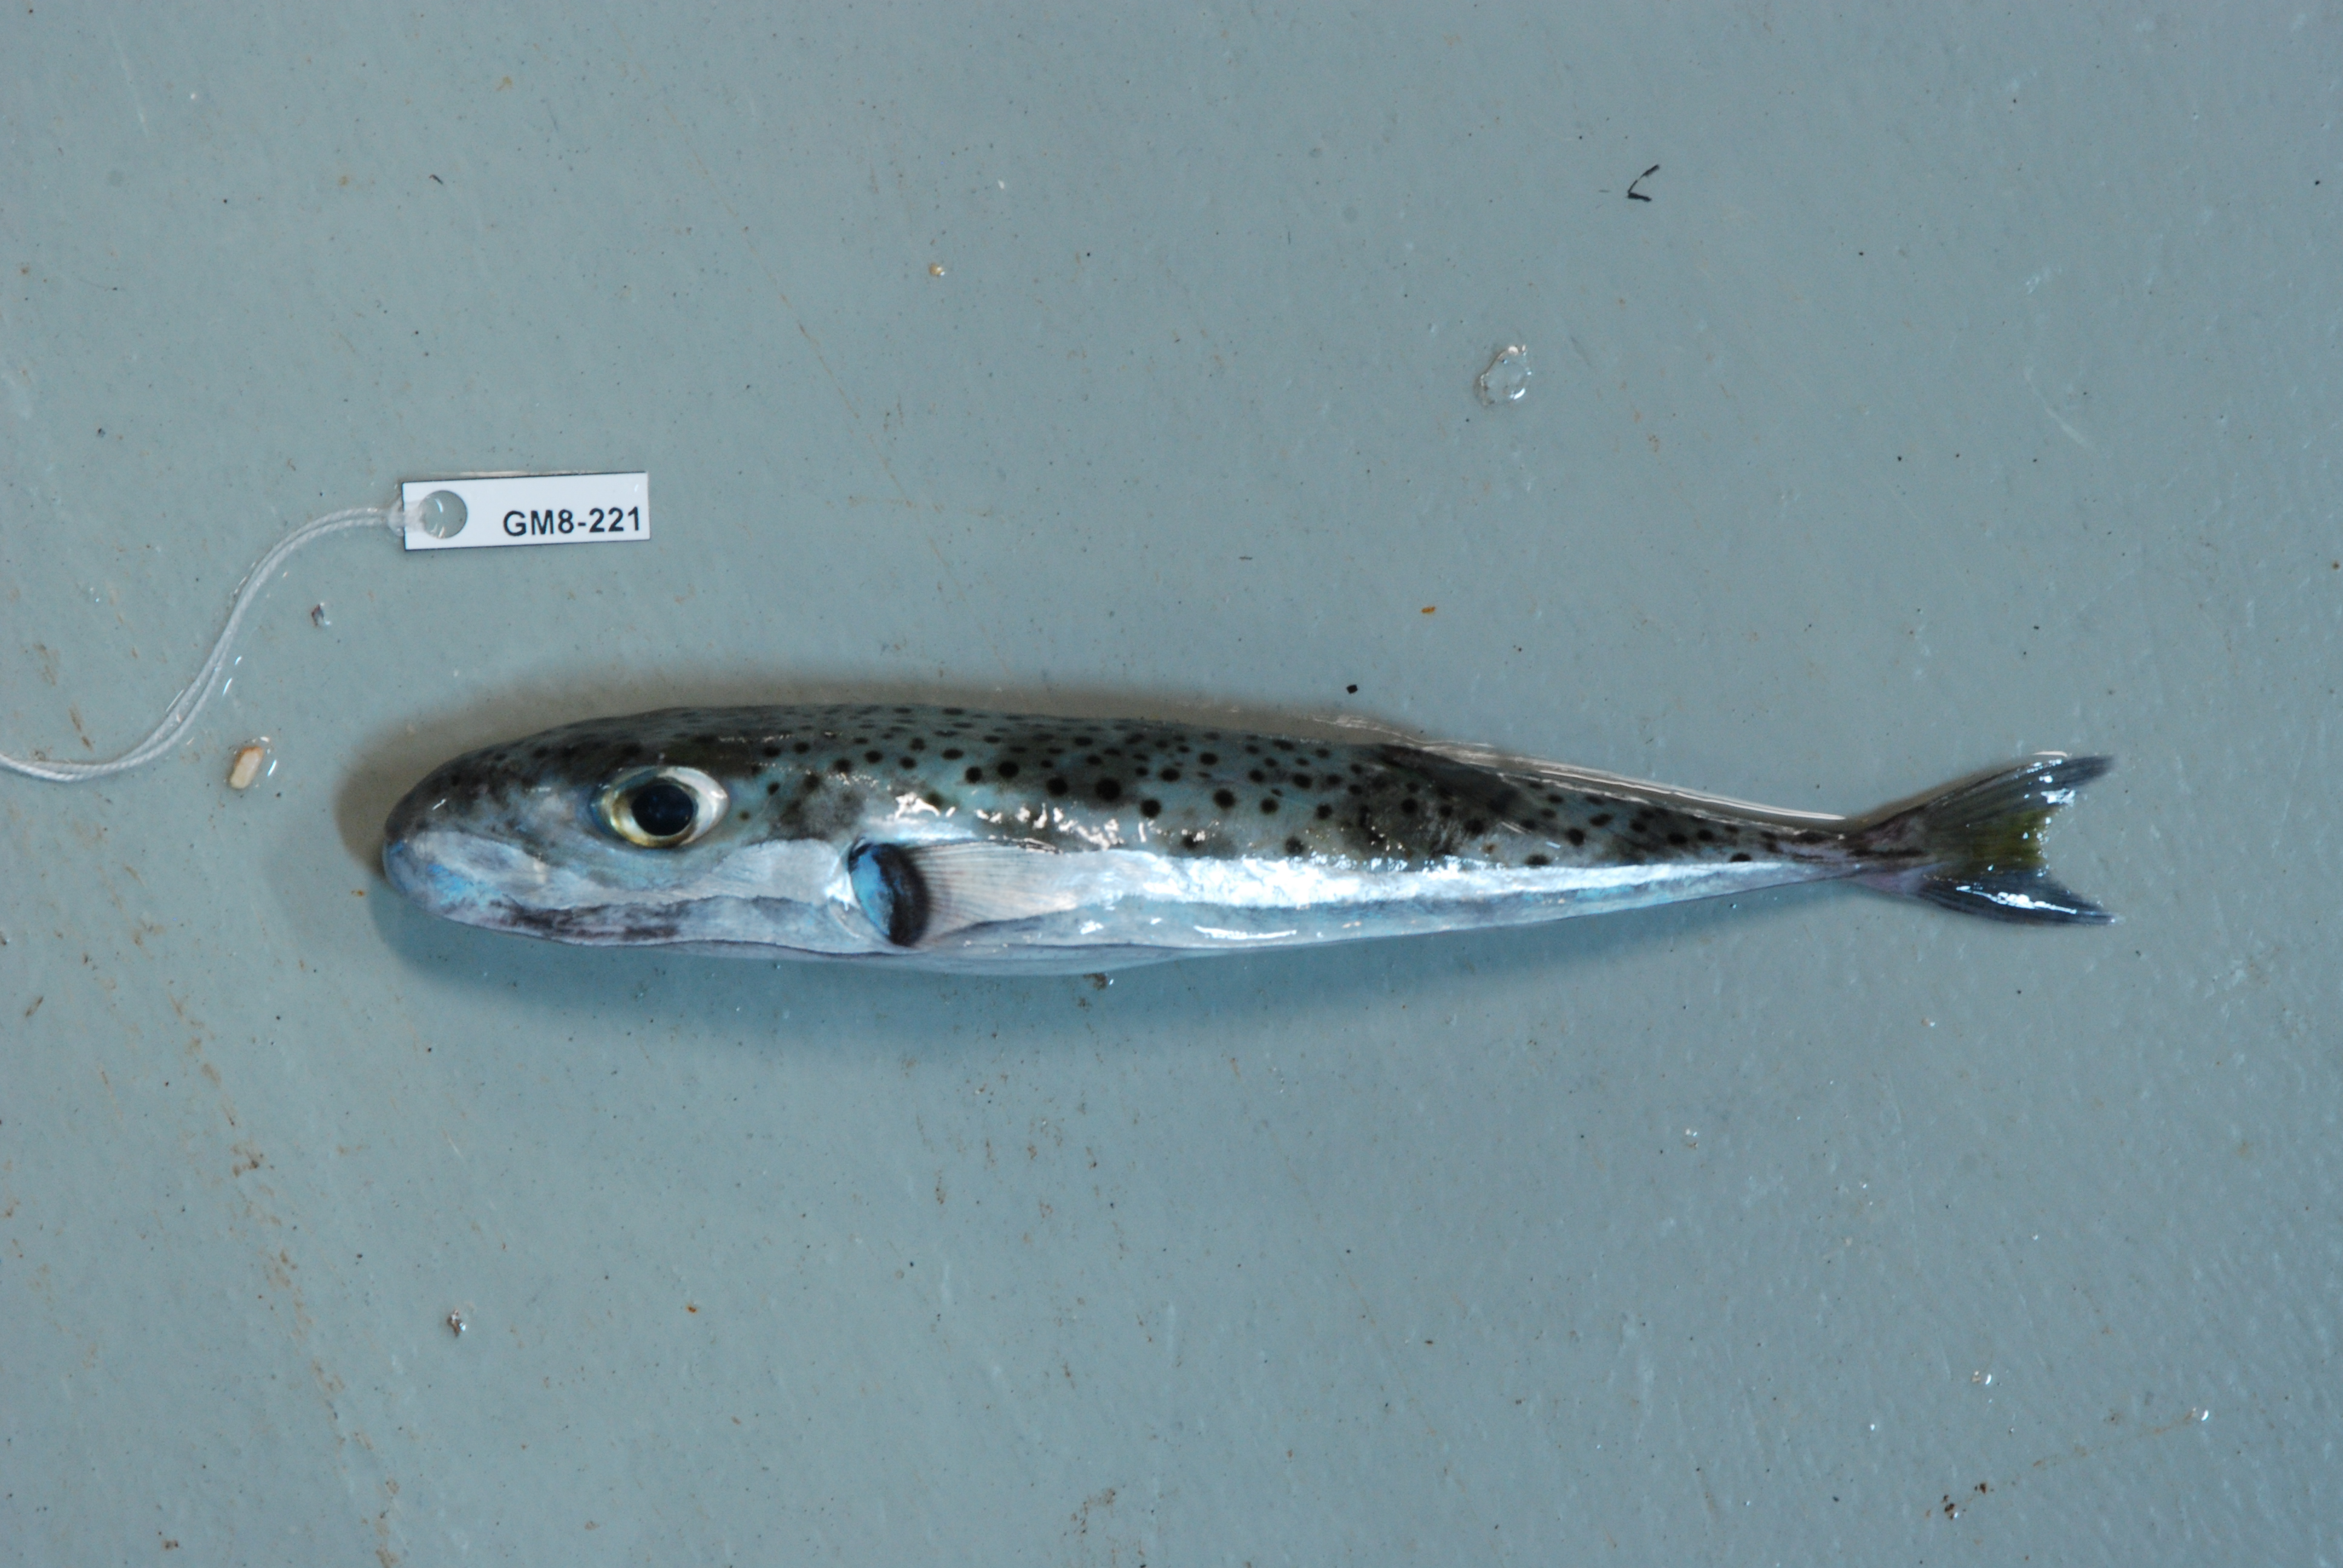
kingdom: Animalia
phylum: Chordata
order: Tetraodontiformes
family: Tetraodontidae
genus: Lagocephalus
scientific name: Lagocephalus sceleratus
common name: Silverstripe blaasop
